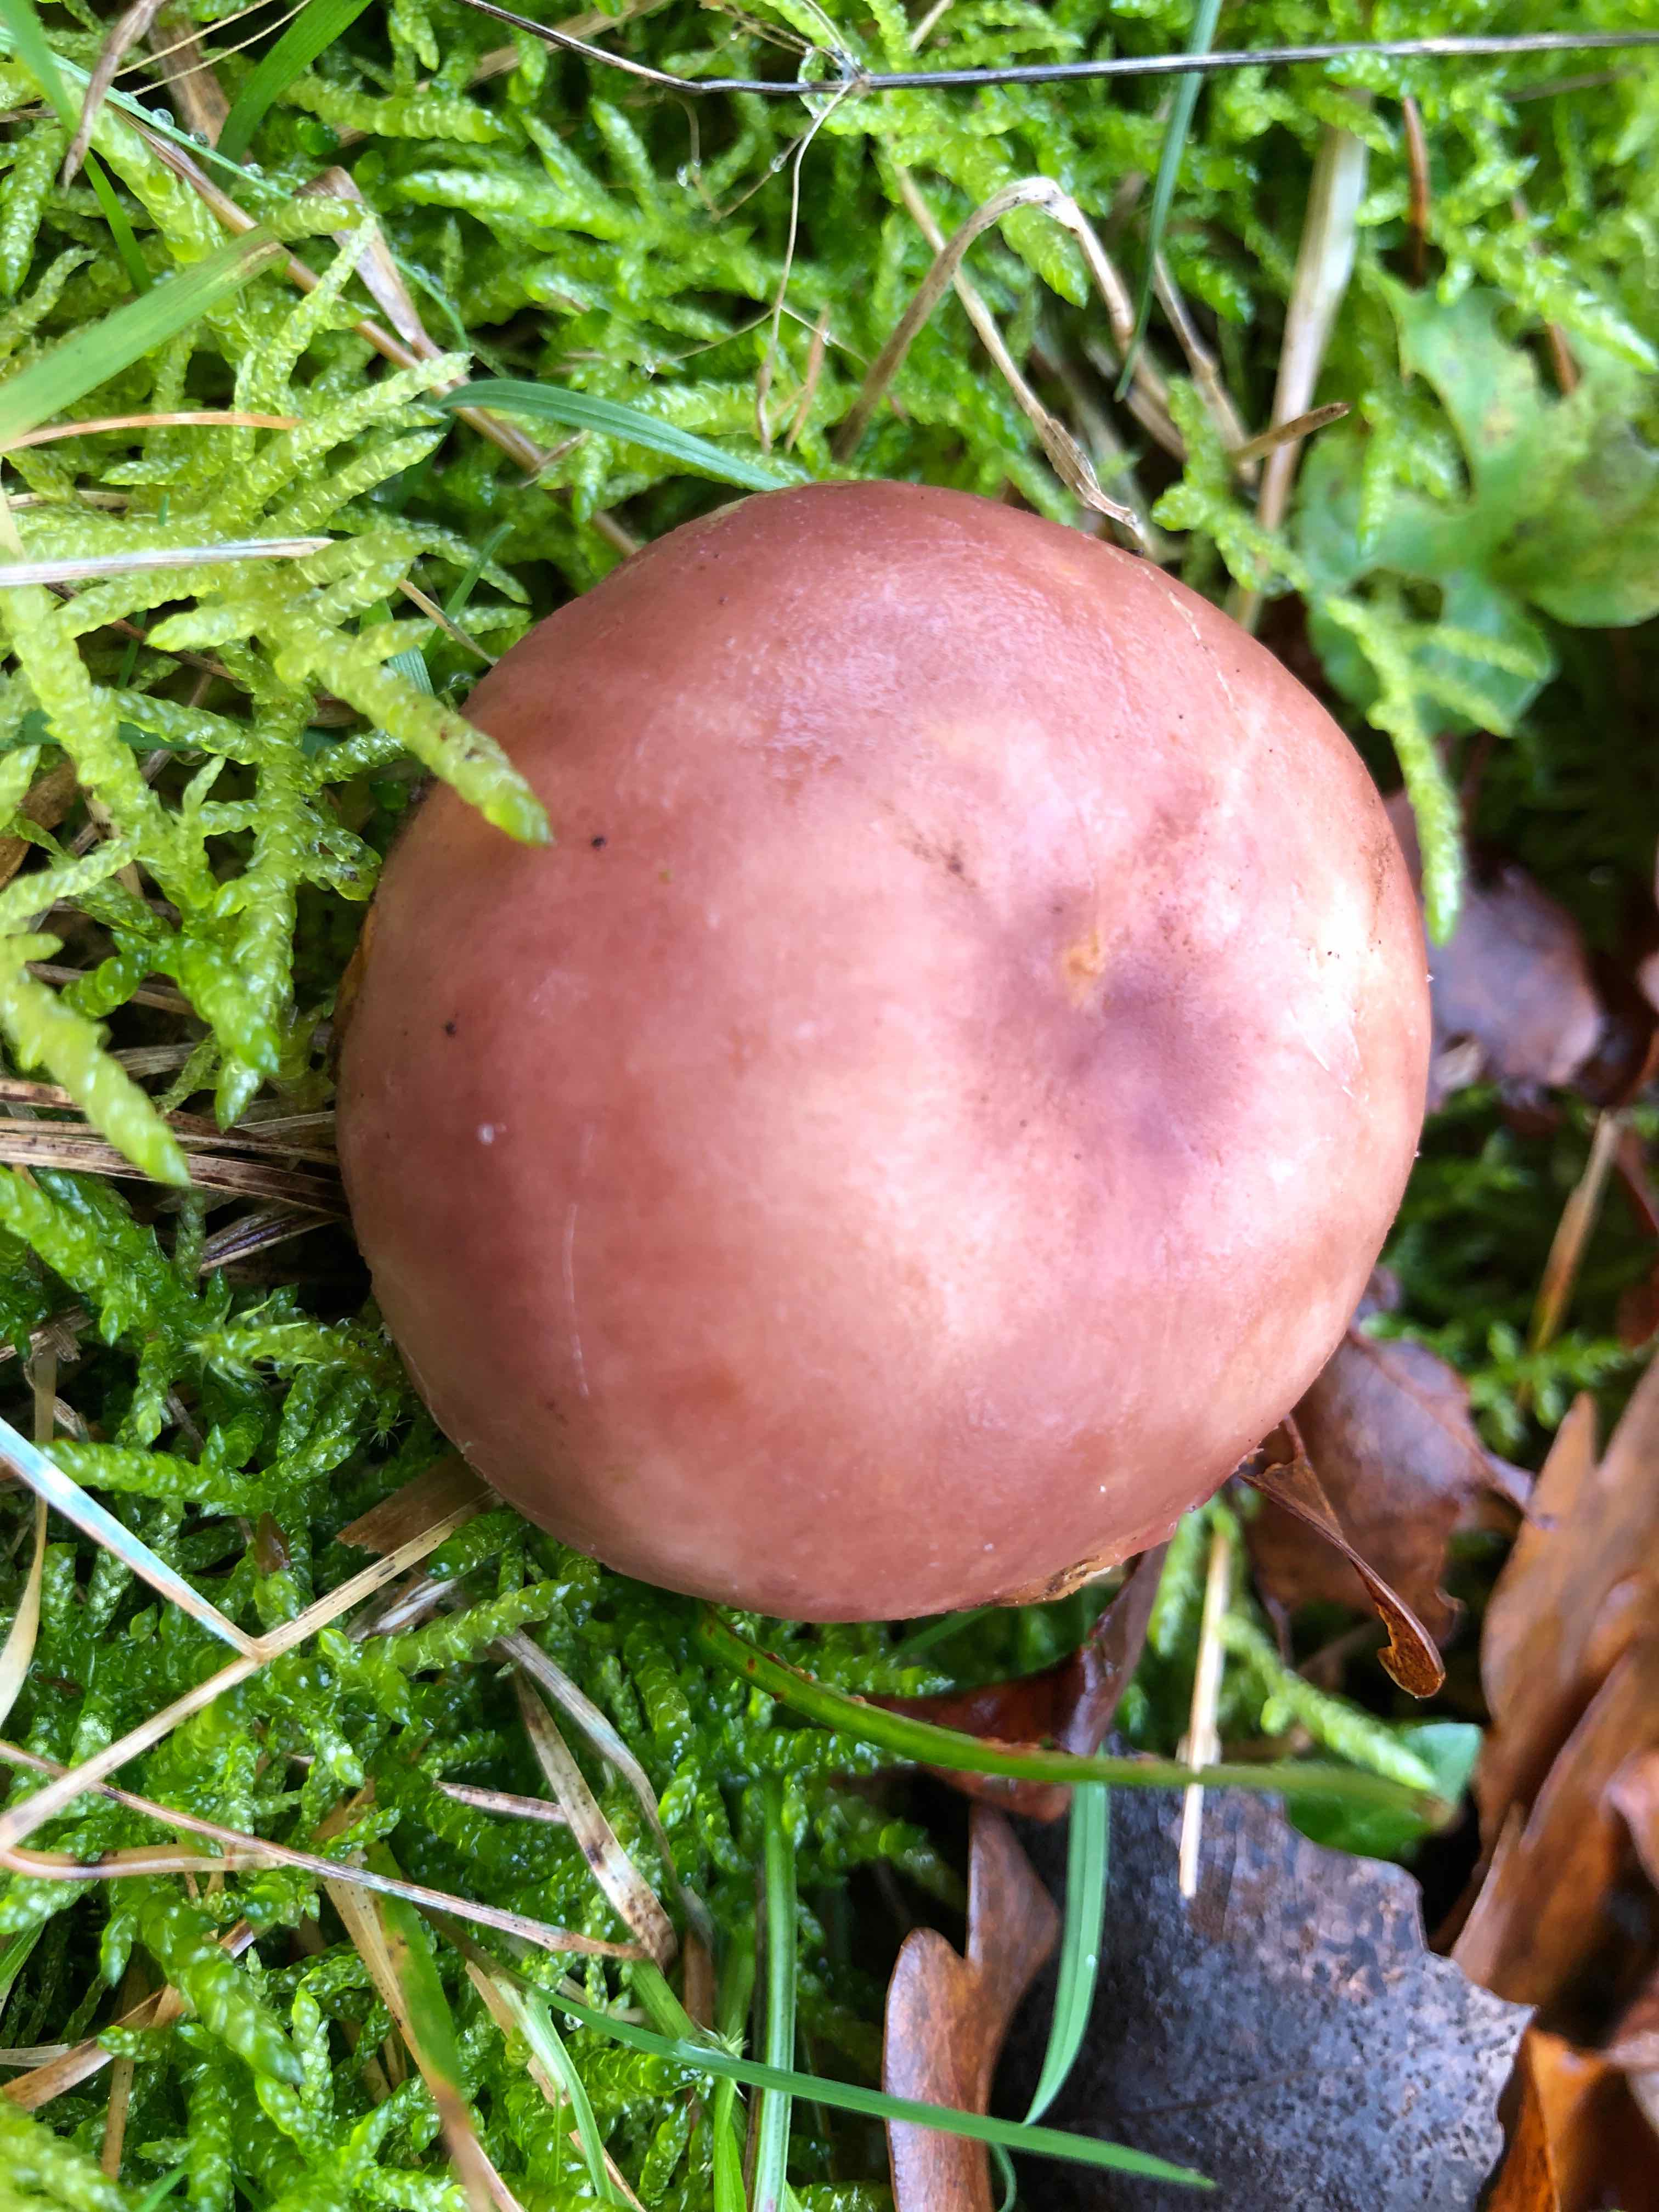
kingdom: Fungi
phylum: Basidiomycota
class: Agaricomycetes
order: Russulales
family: Russulaceae
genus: Russula
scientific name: Russula vesca
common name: spiselig skørhat
